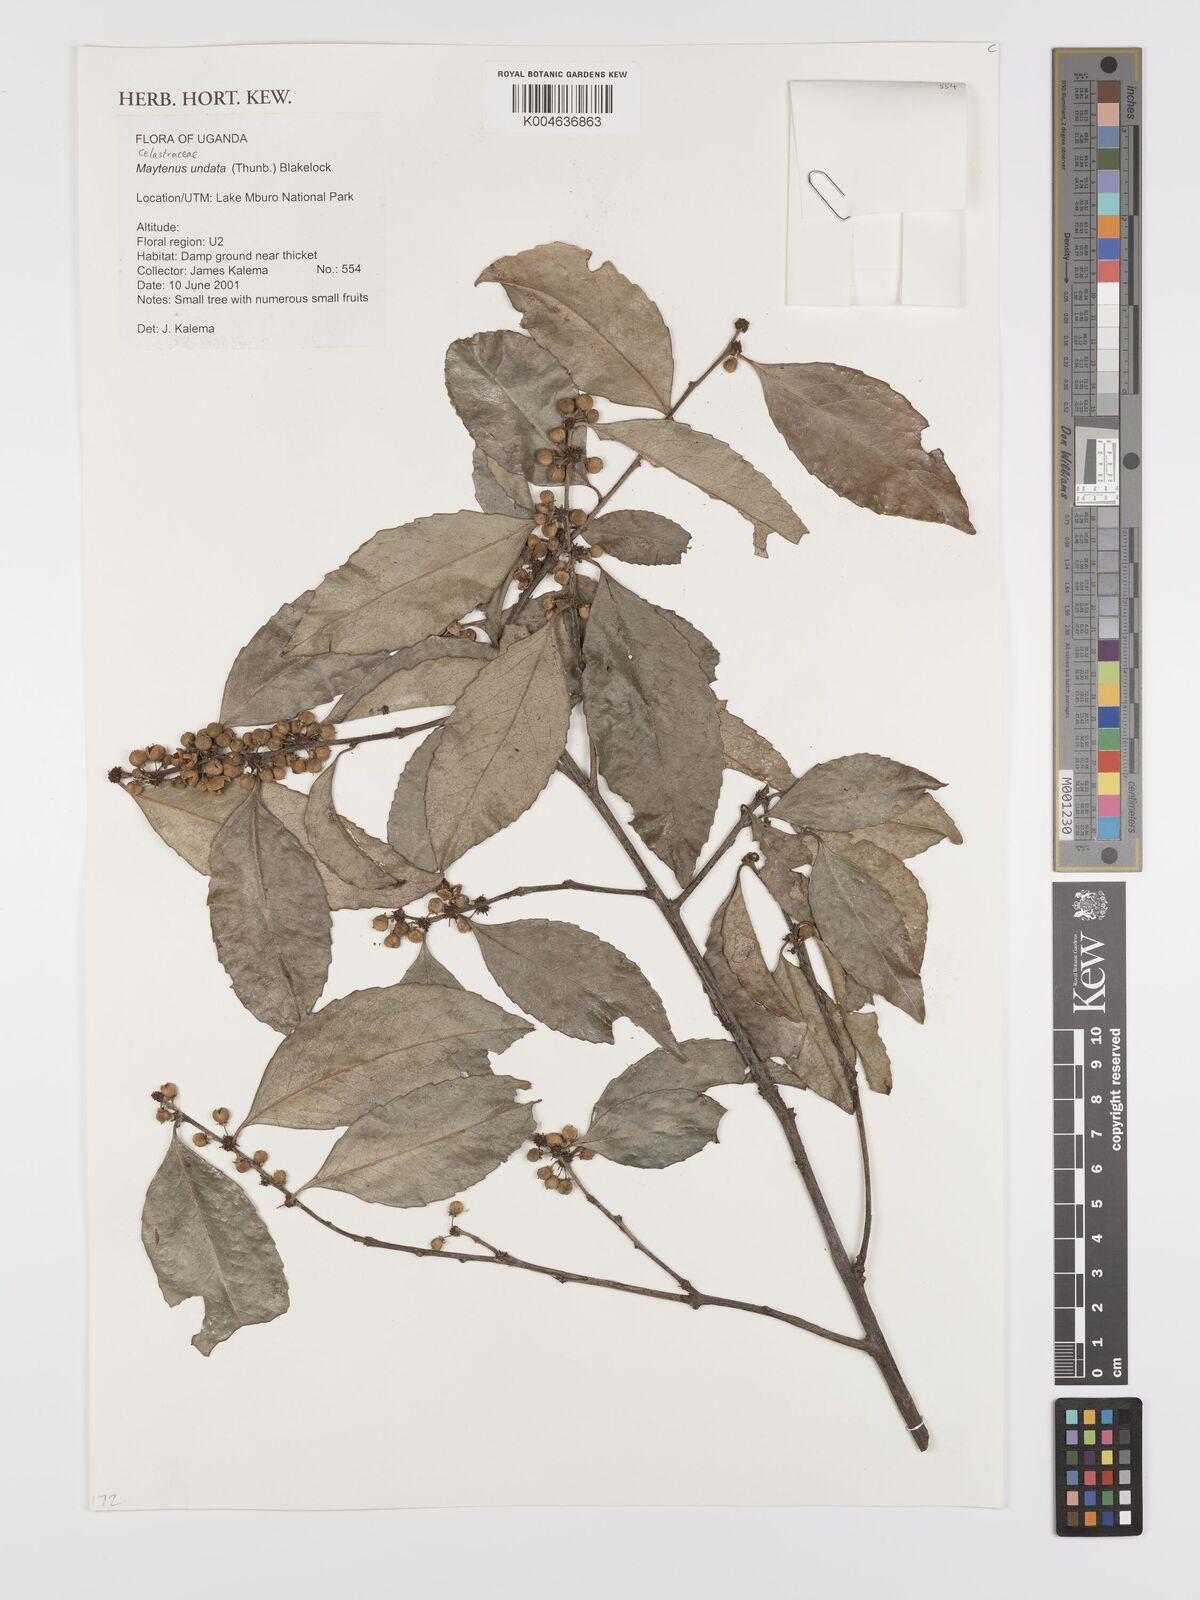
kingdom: Plantae
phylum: Tracheophyta
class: Magnoliopsida
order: Celastrales
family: Celastraceae
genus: Gymnosporia
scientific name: Gymnosporia undata
